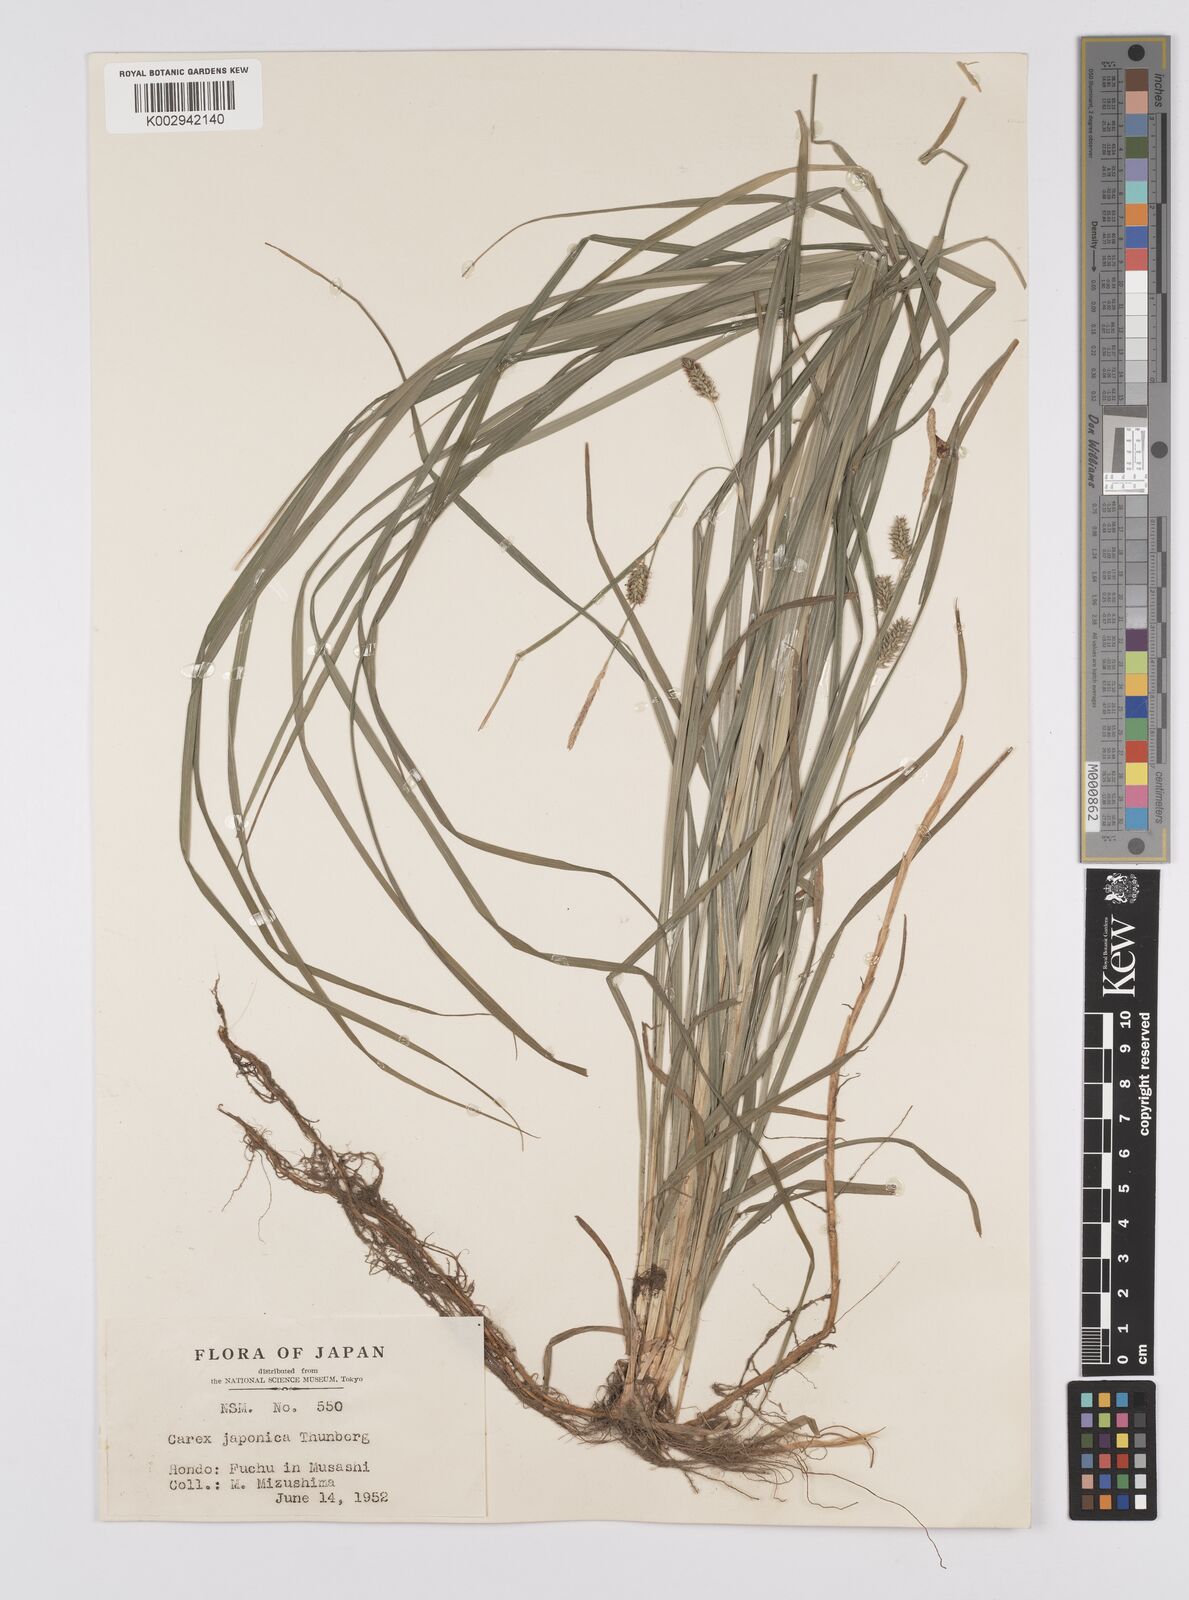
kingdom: Plantae
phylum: Tracheophyta
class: Liliopsida
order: Poales
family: Cyperaceae
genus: Carex
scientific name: Carex japonica
